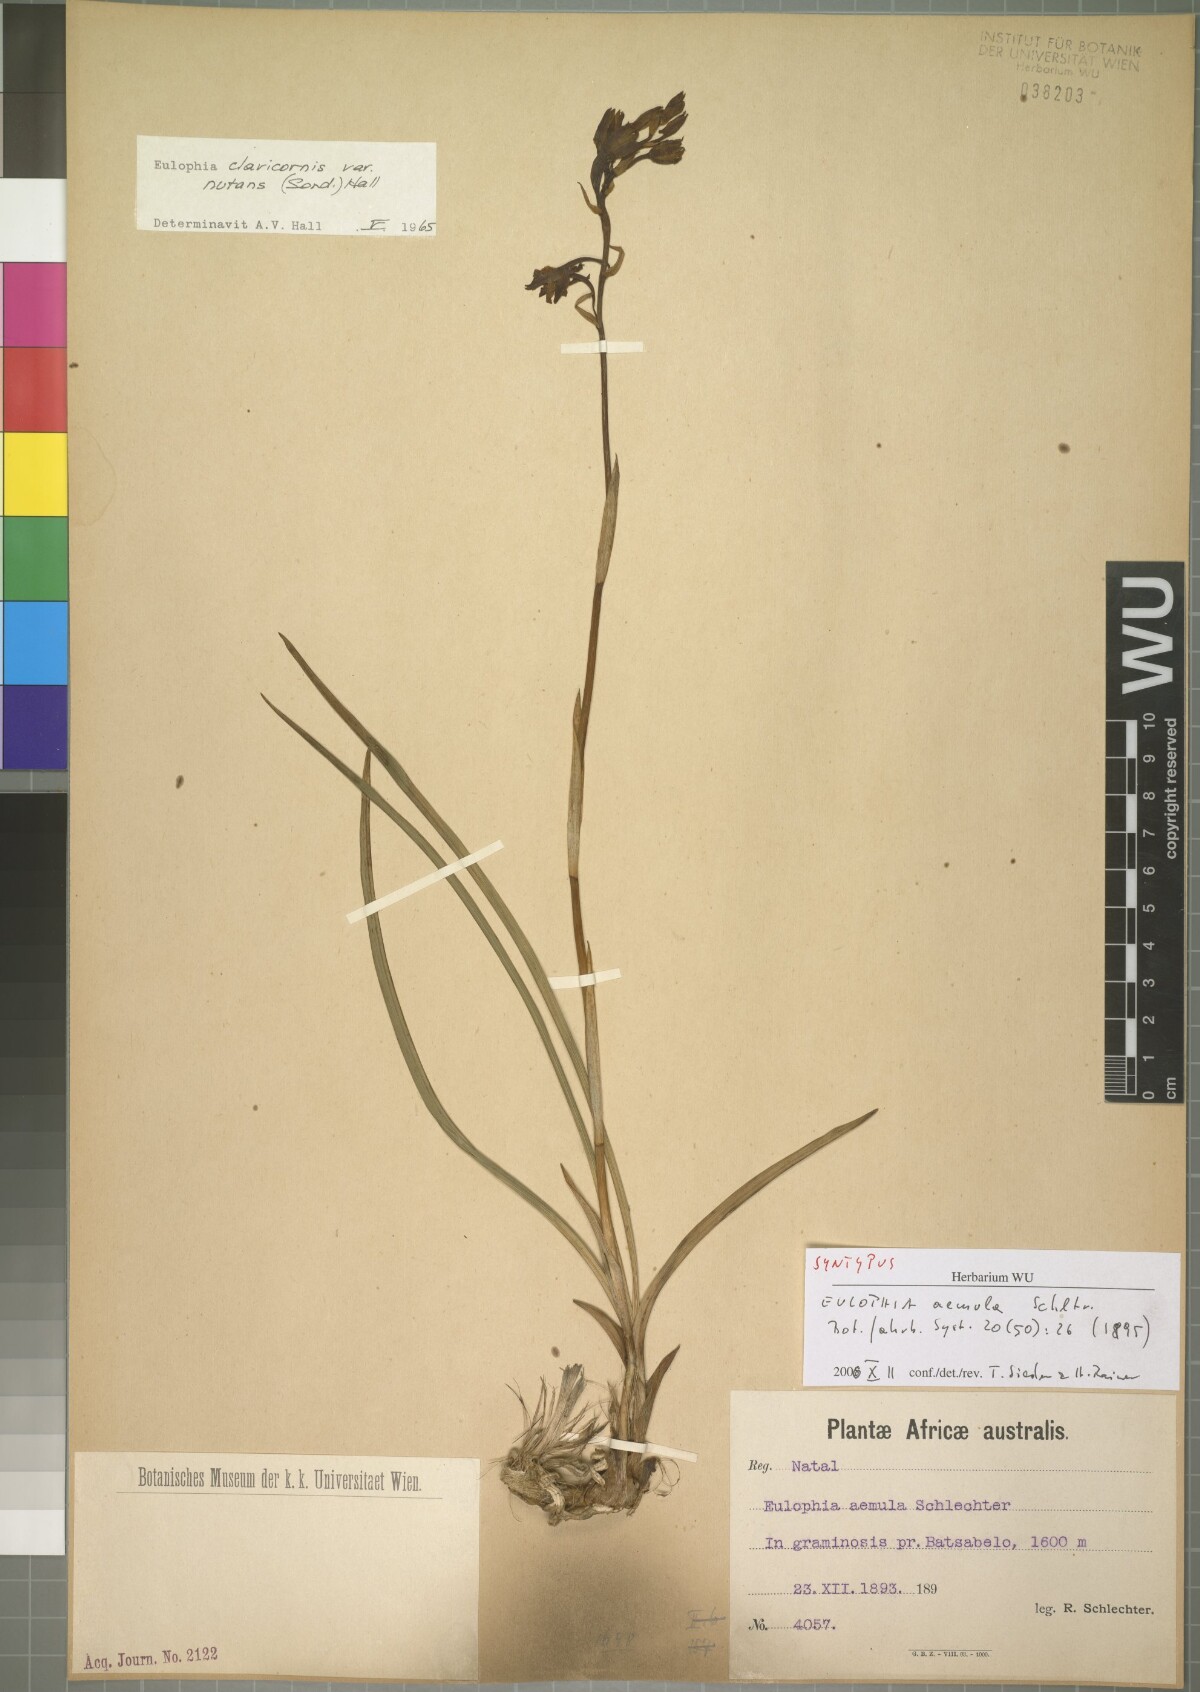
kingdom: Plantae
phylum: Tracheophyta
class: Liliopsida
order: Asparagales
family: Orchidaceae
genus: Eulophia
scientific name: Eulophia hians
